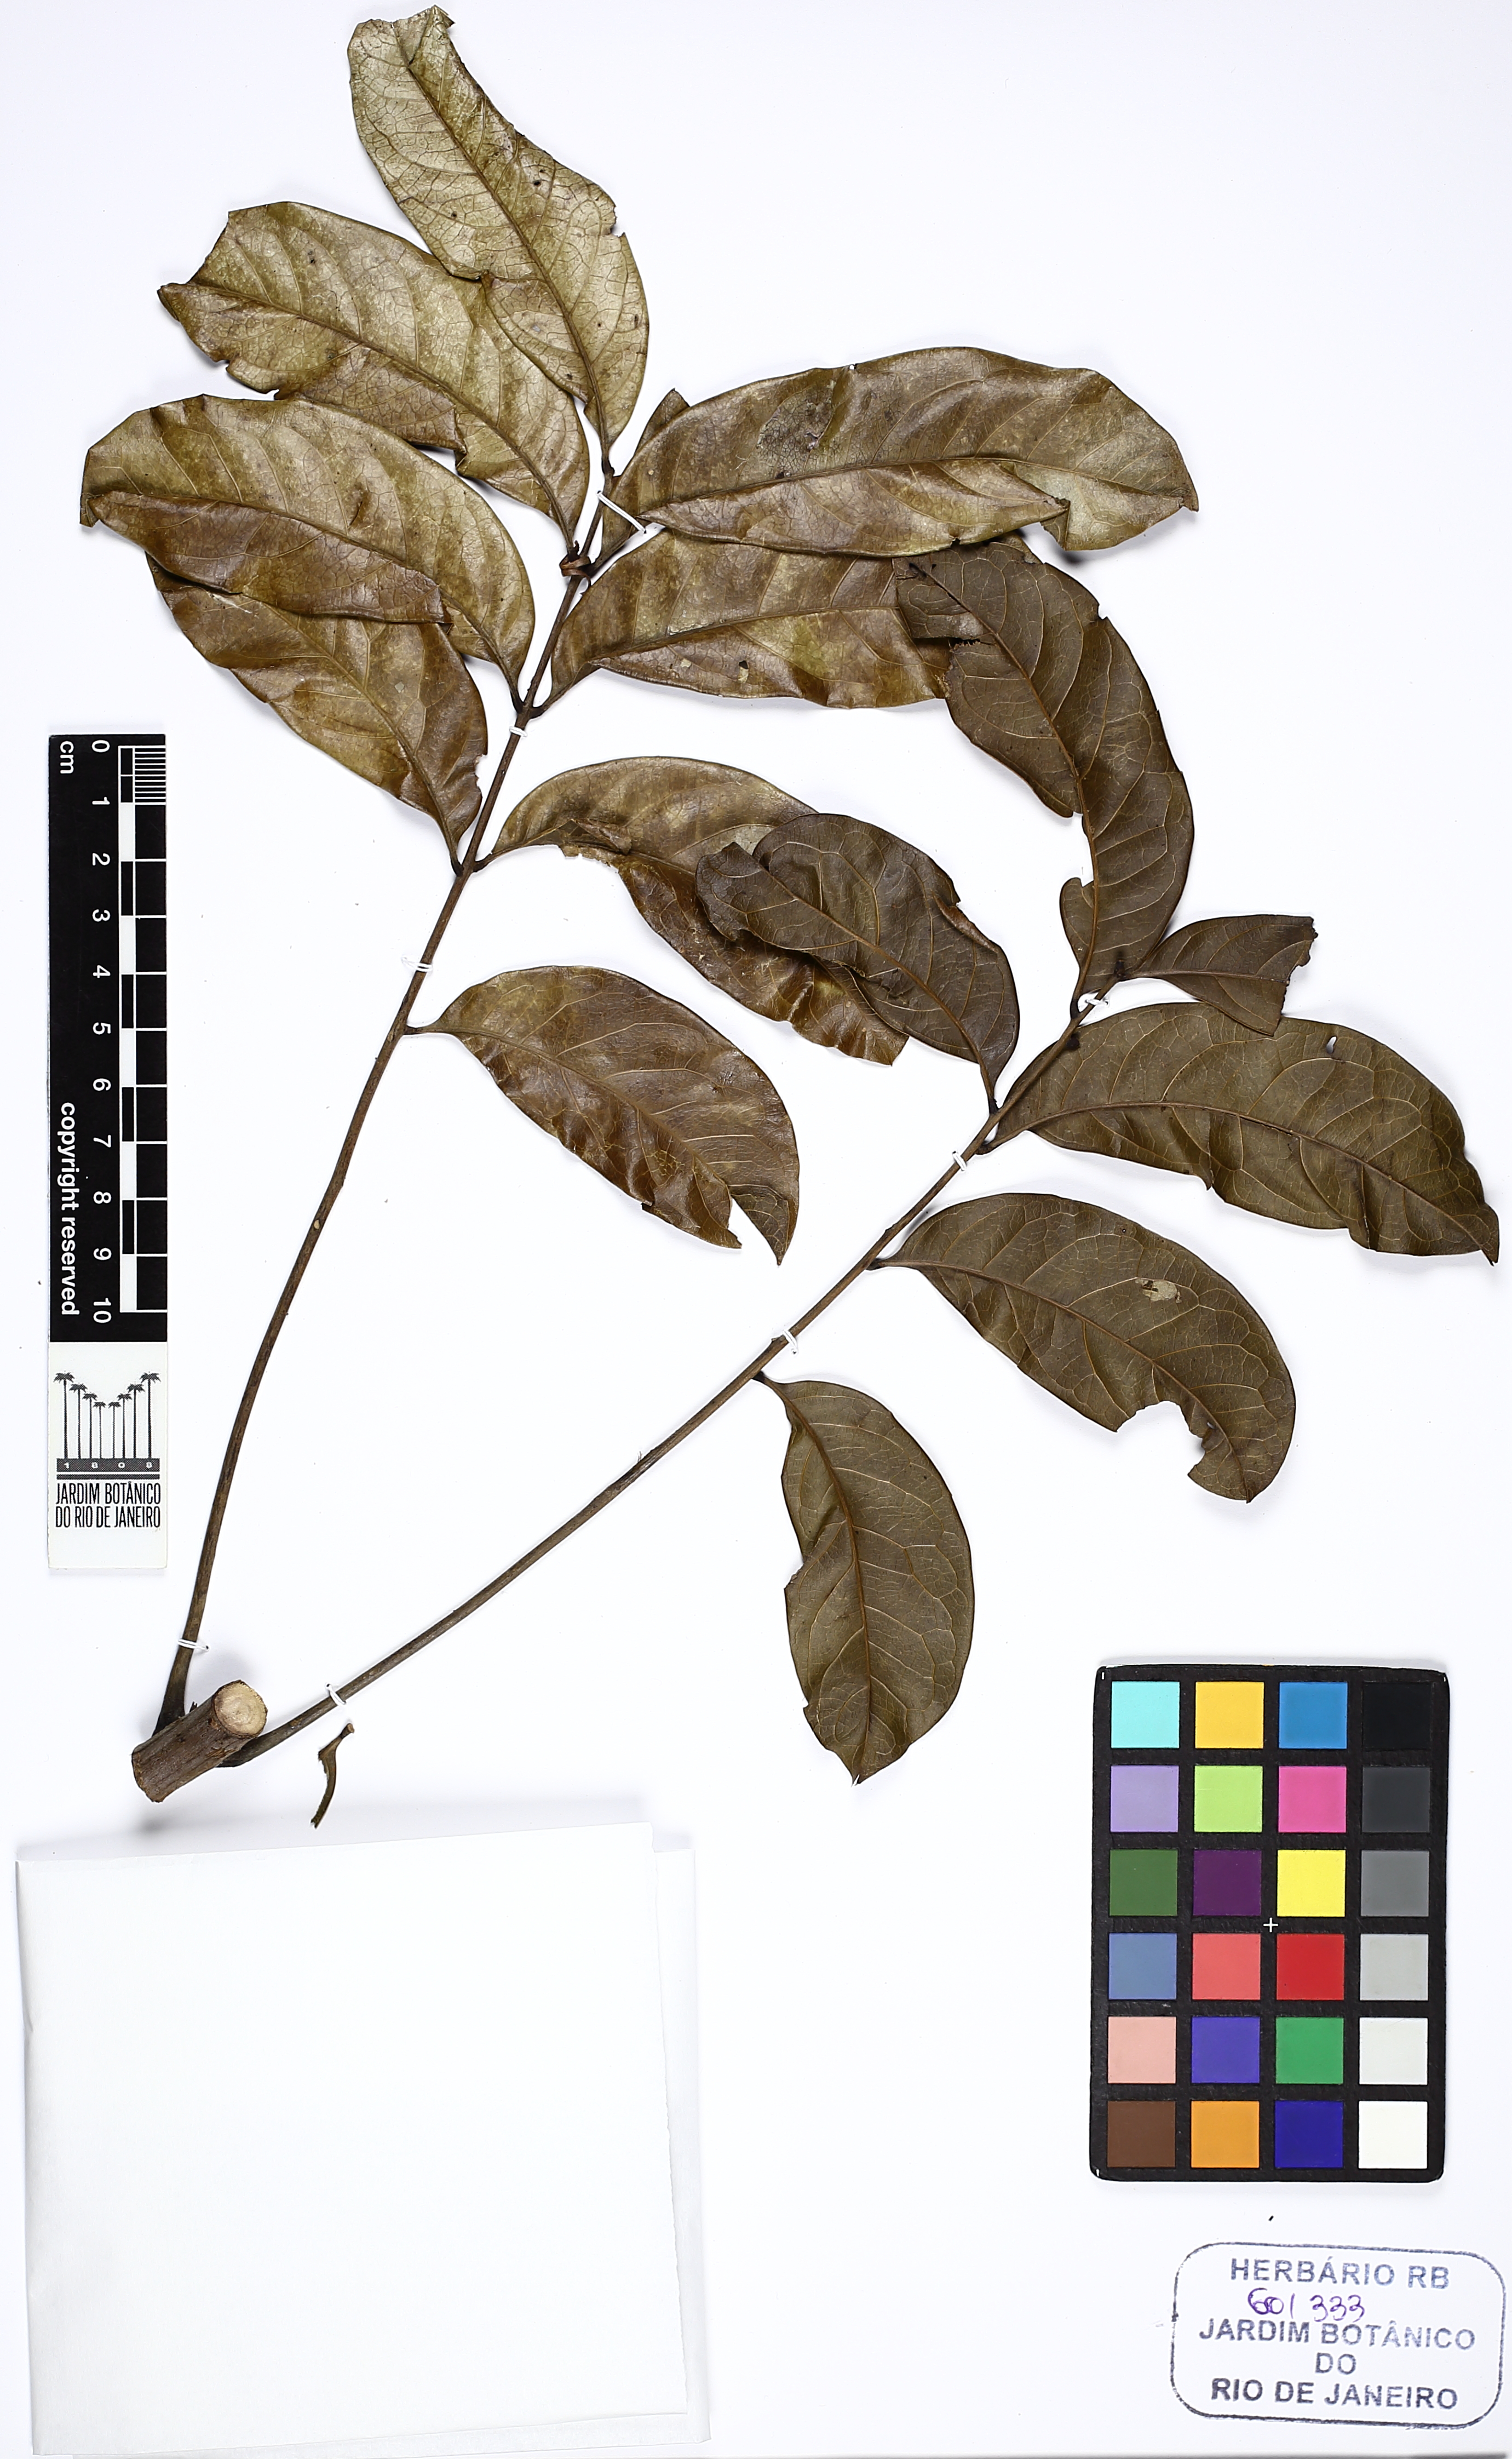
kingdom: Plantae
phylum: Tracheophyta
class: Magnoliopsida
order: Sapindales
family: Meliaceae
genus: Guarea
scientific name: Guarea
